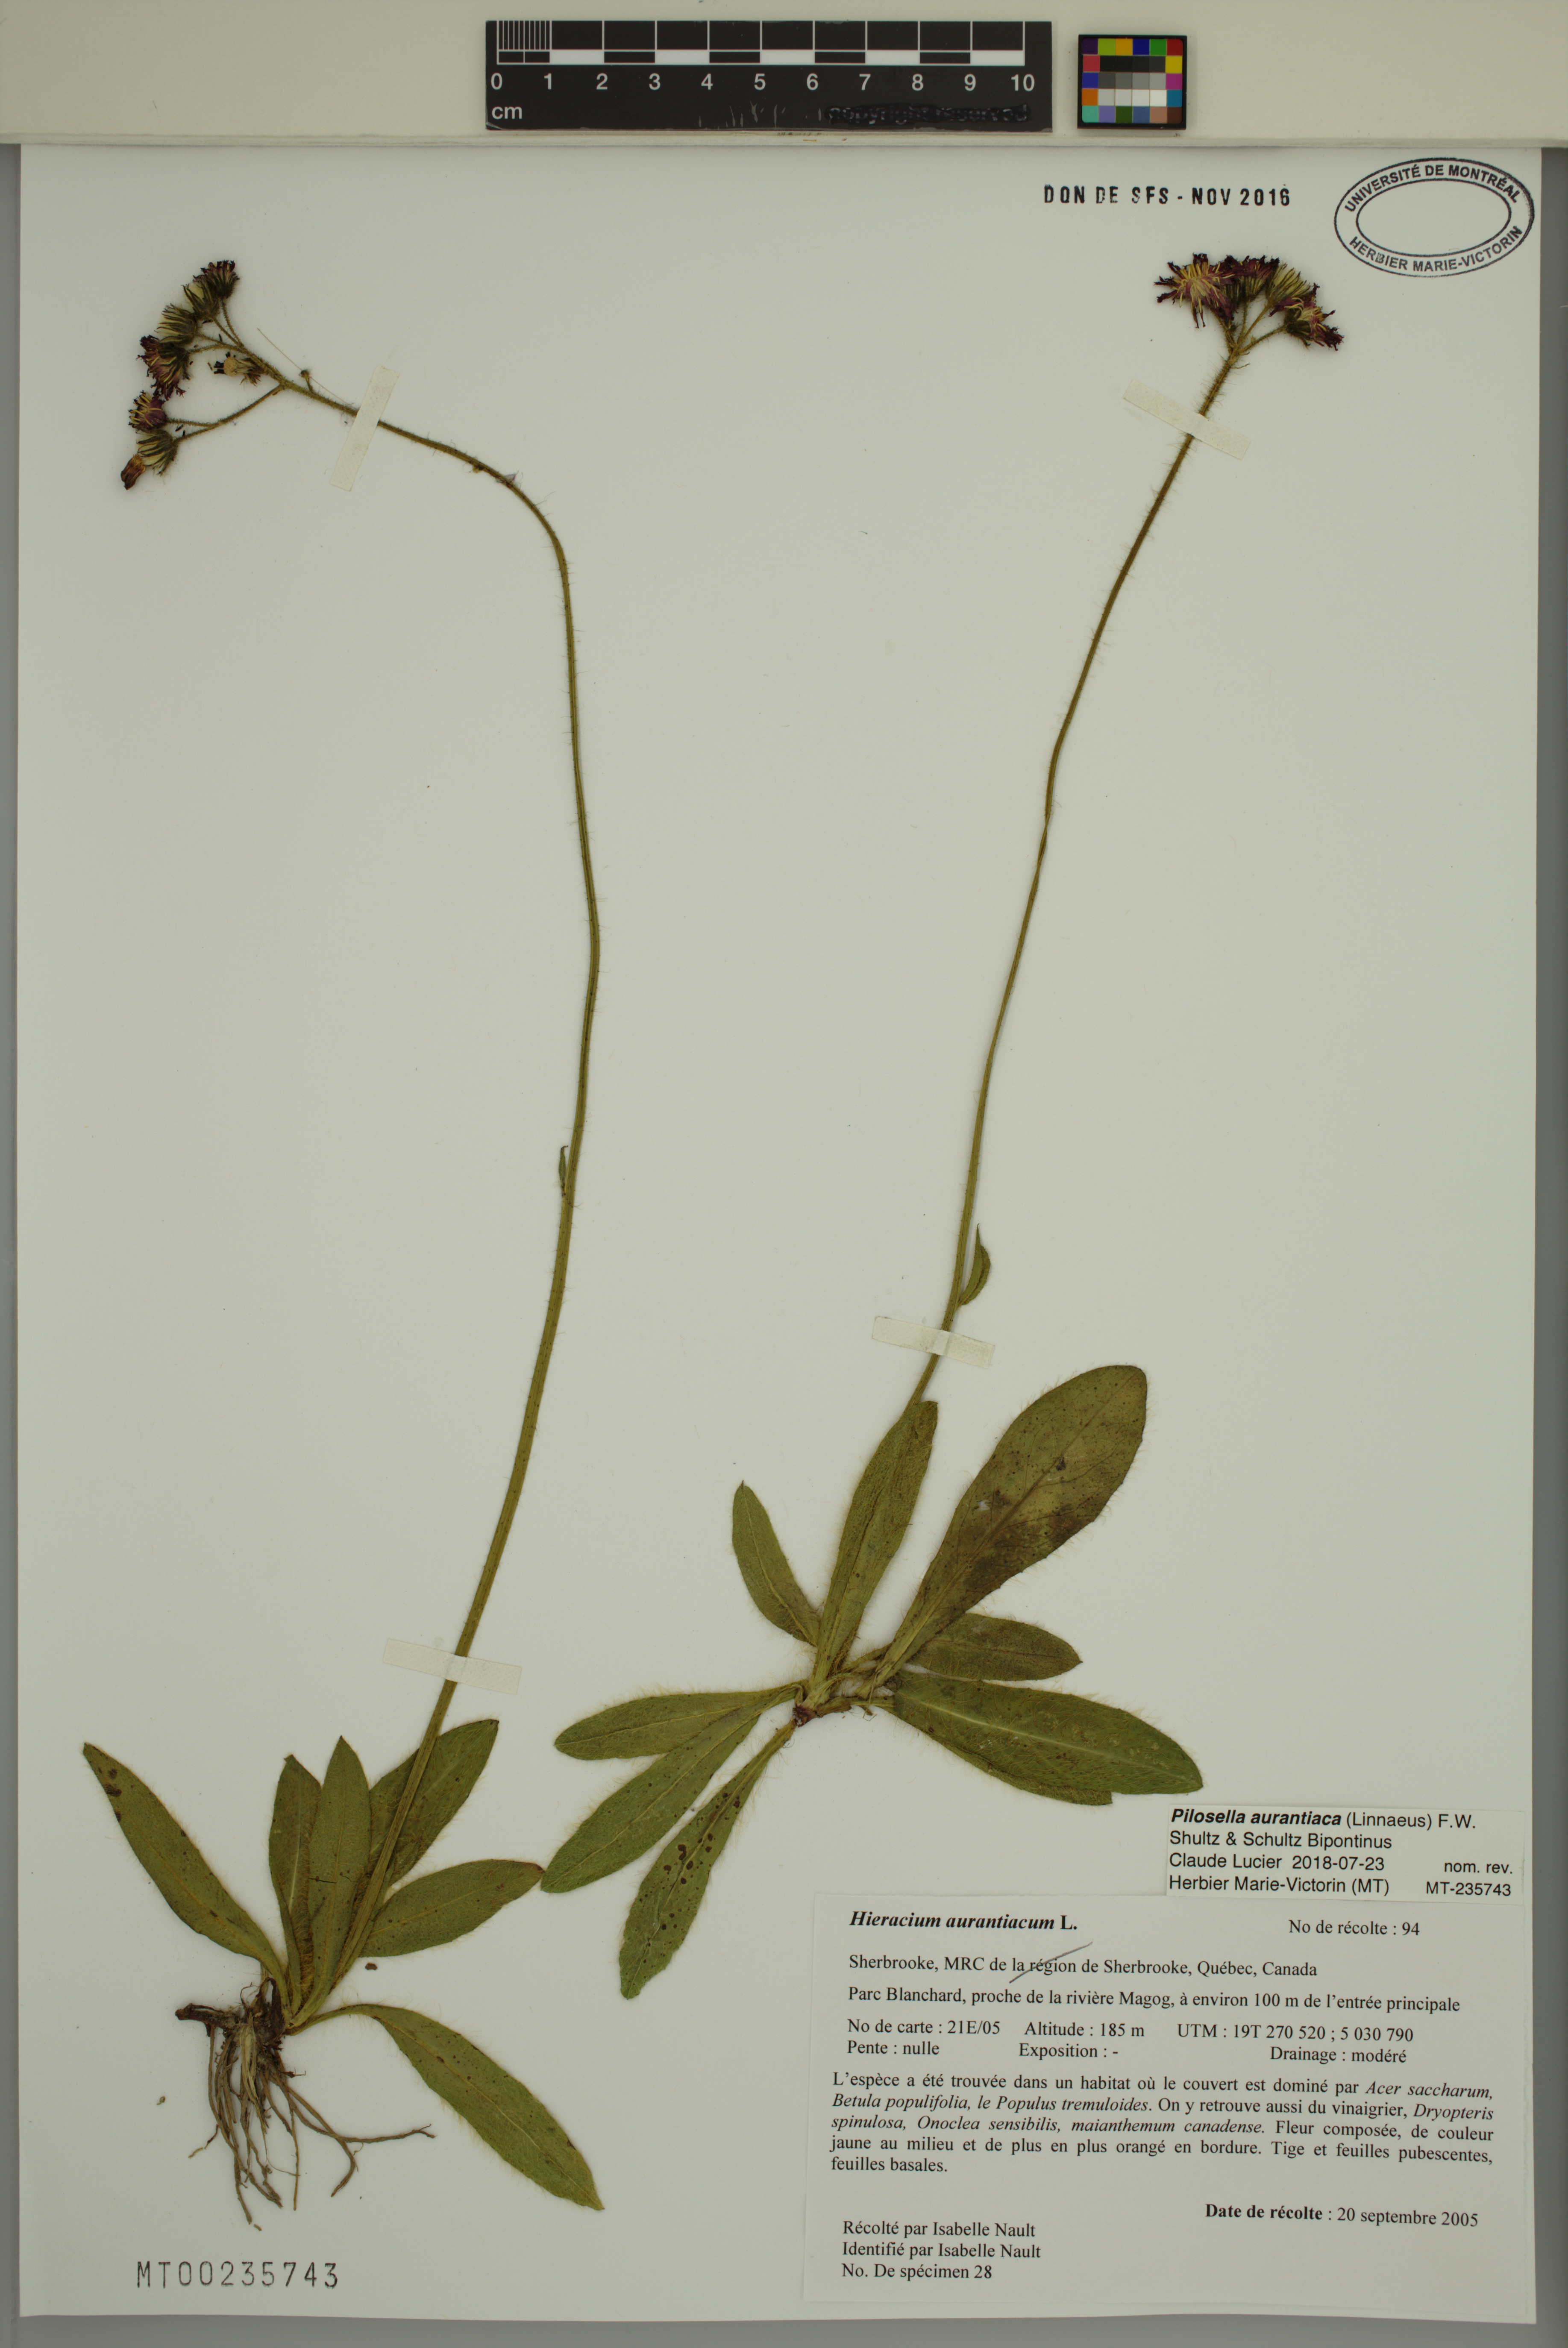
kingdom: Plantae
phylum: Tracheophyta
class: Magnoliopsida
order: Asterales
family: Asteraceae
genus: Pilosella
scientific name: Pilosella aurantiaca
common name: Fox-and-cubs
